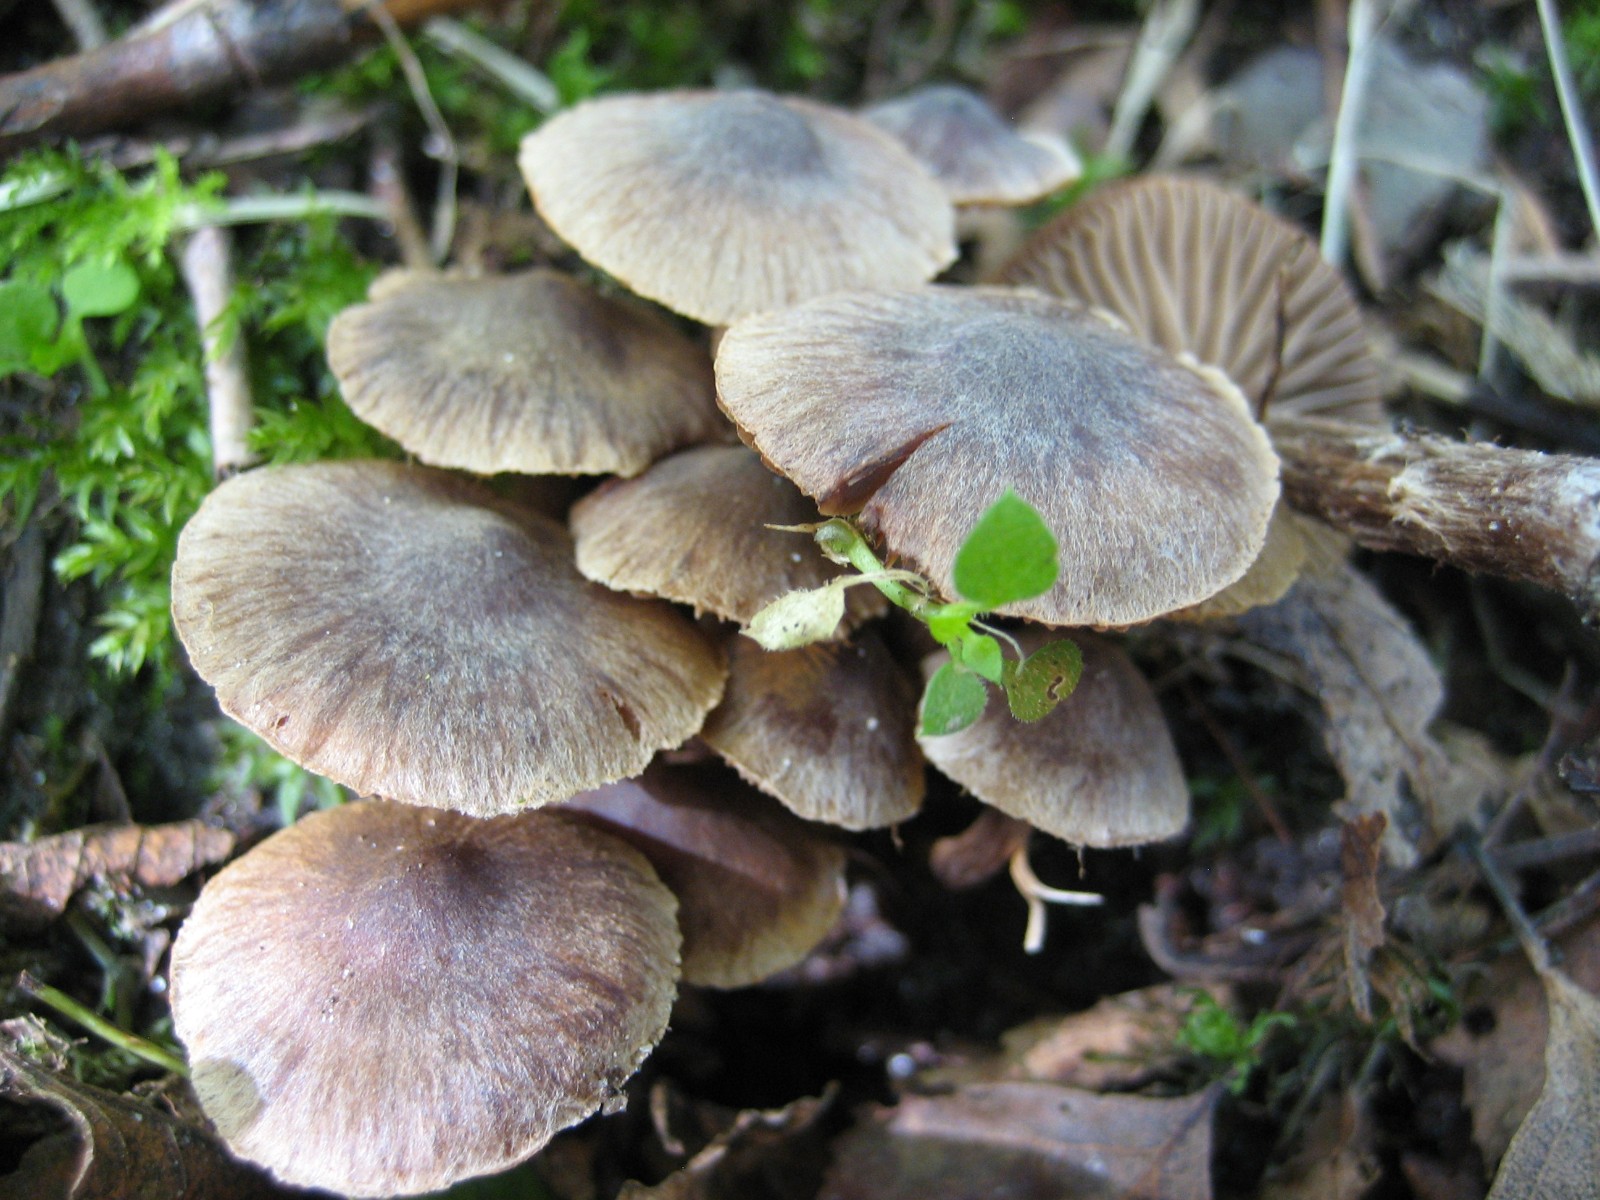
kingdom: Fungi
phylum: Basidiomycota
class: Agaricomycetes
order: Agaricales
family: Cortinariaceae
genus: Cortinarius
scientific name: Cortinarius
